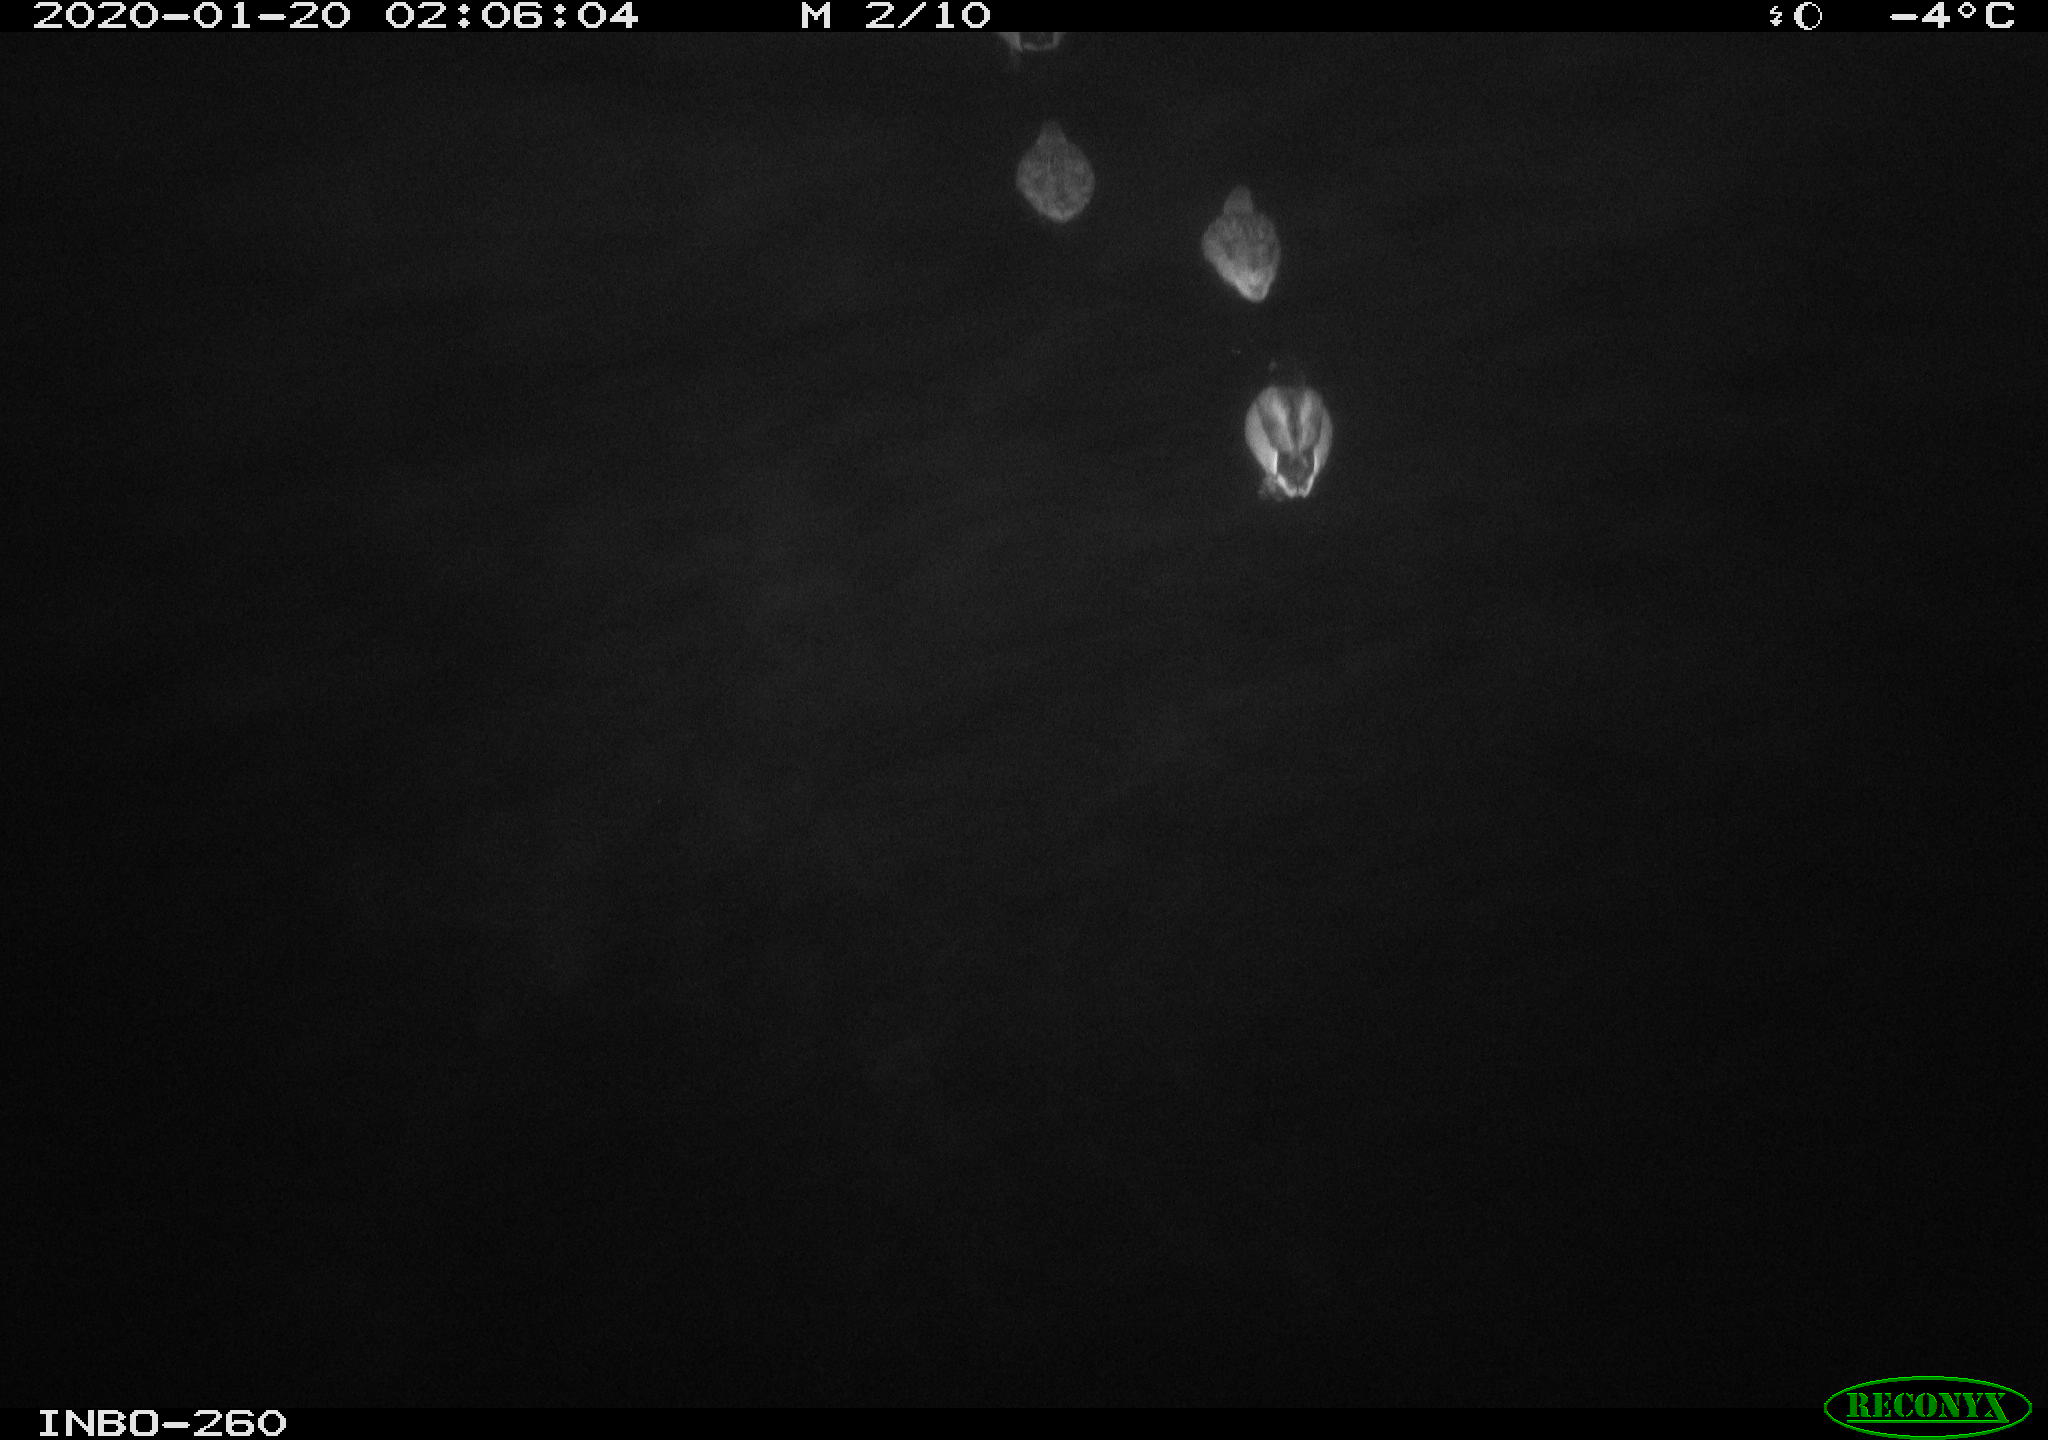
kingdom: Animalia
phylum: Chordata
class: Aves
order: Anseriformes
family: Anatidae
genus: Anas
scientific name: Anas platyrhynchos
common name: Mallard
